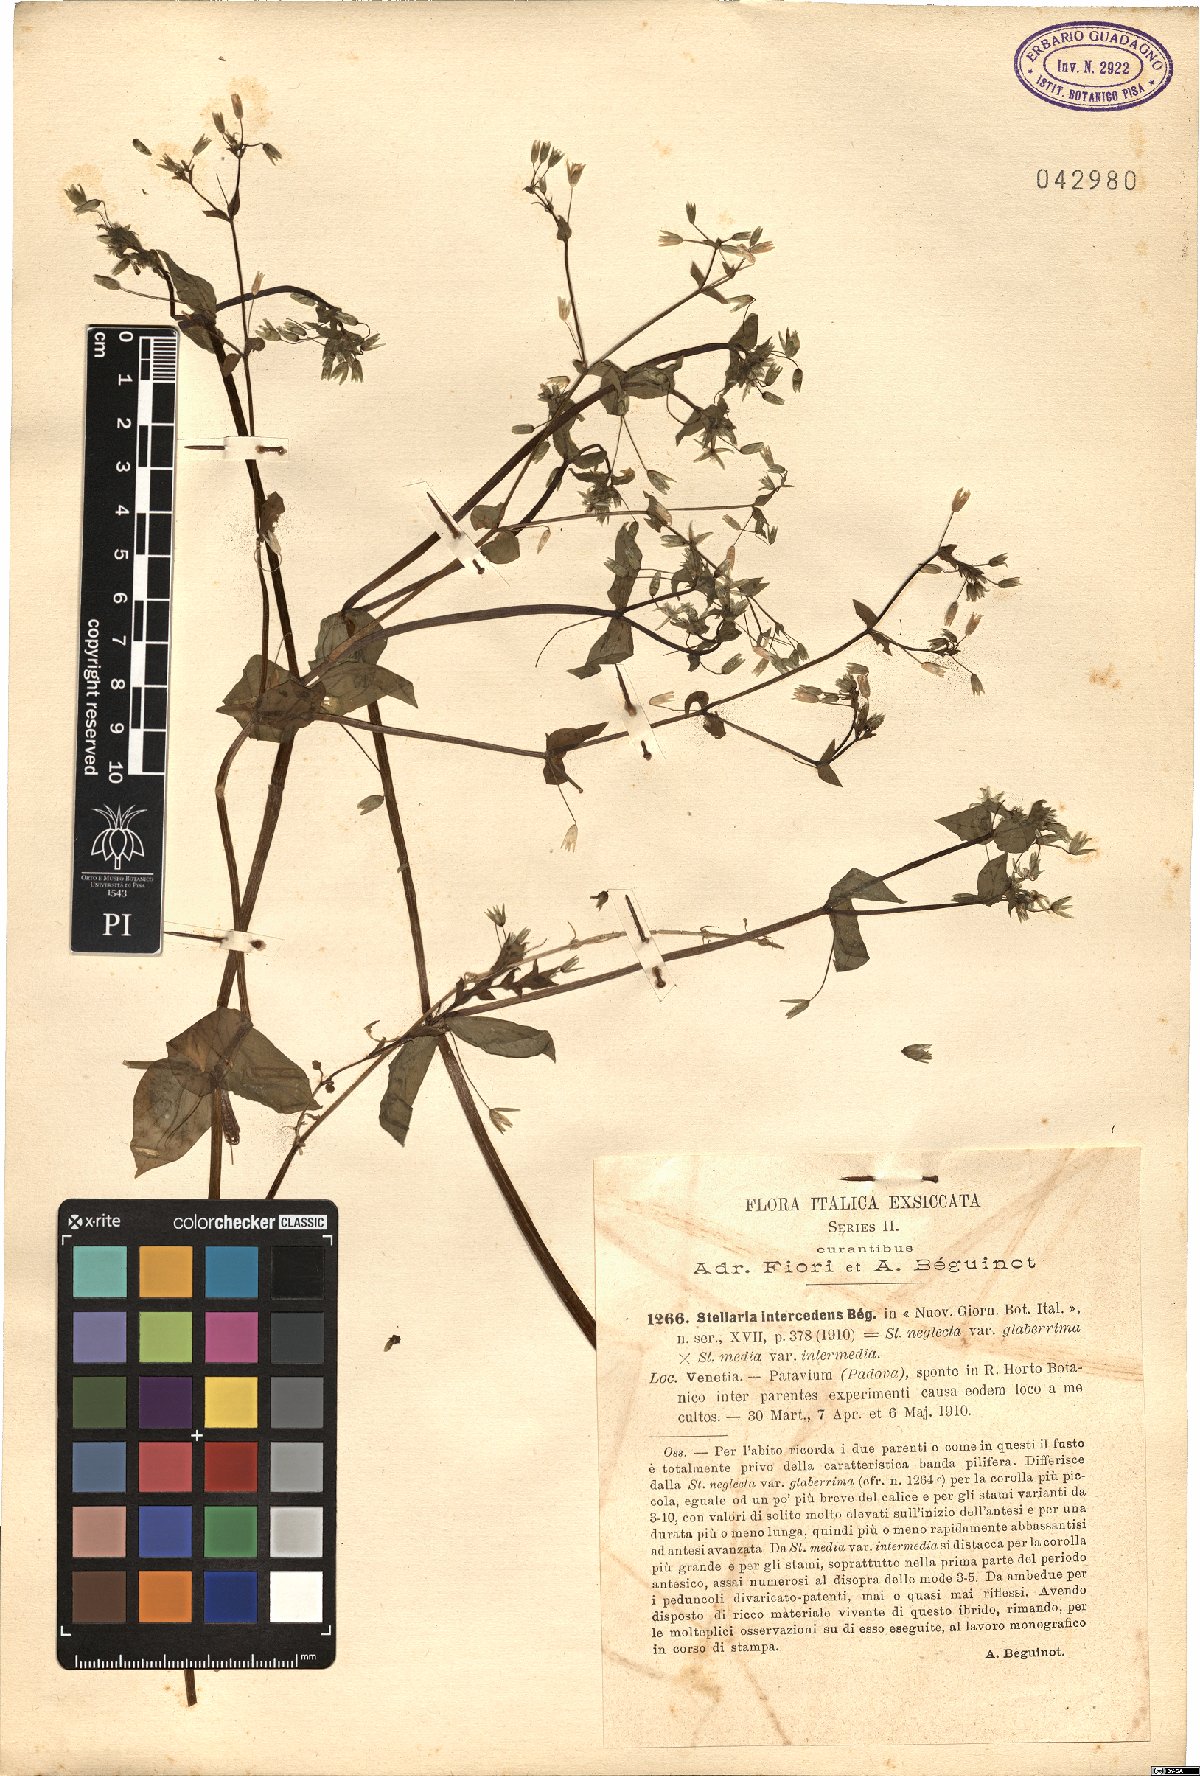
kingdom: Plantae
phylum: Tracheophyta
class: Magnoliopsida
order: Caryophyllales
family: Caryophyllaceae
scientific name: Caryophyllaceae
